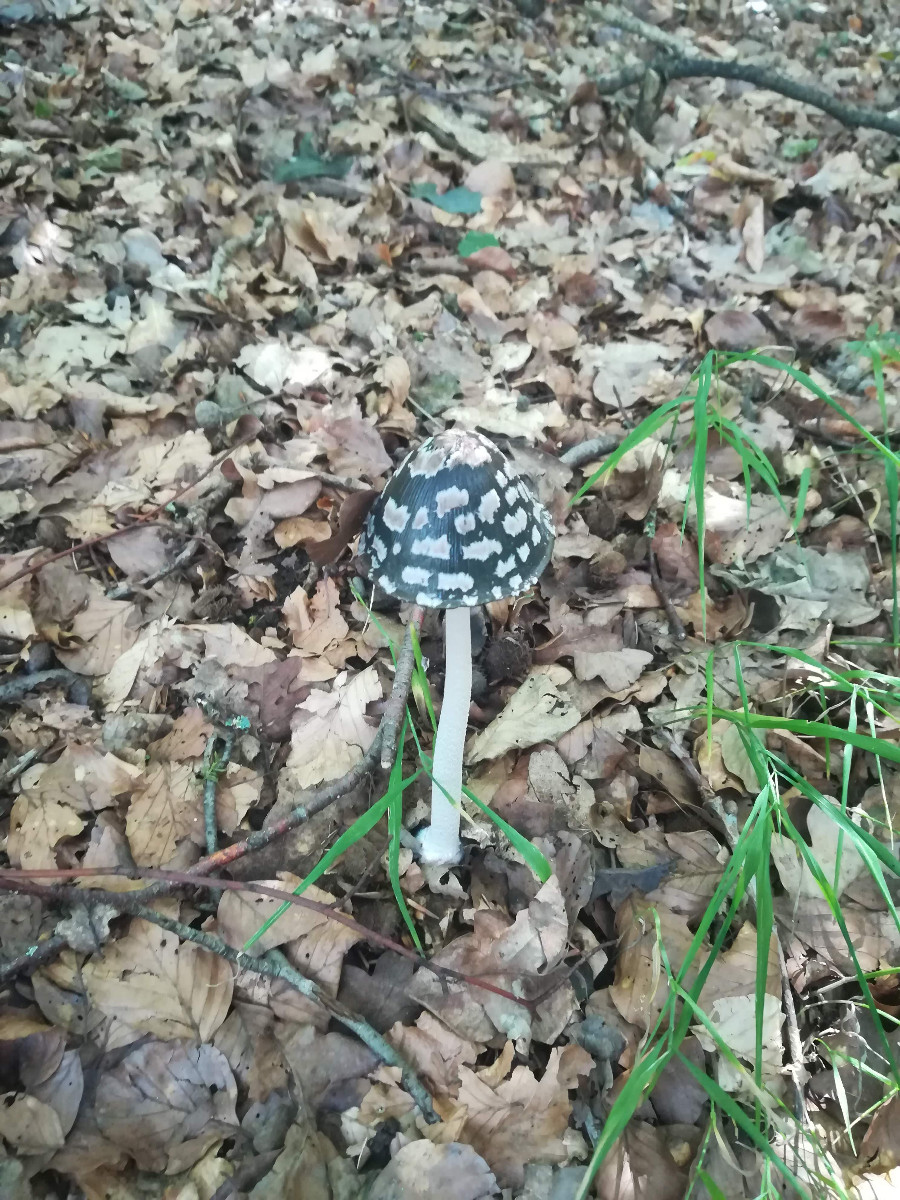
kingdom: Fungi
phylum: Basidiomycota
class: Agaricomycetes
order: Agaricales
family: Psathyrellaceae
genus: Coprinopsis
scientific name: Coprinopsis picacea
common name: skade-blækhat
